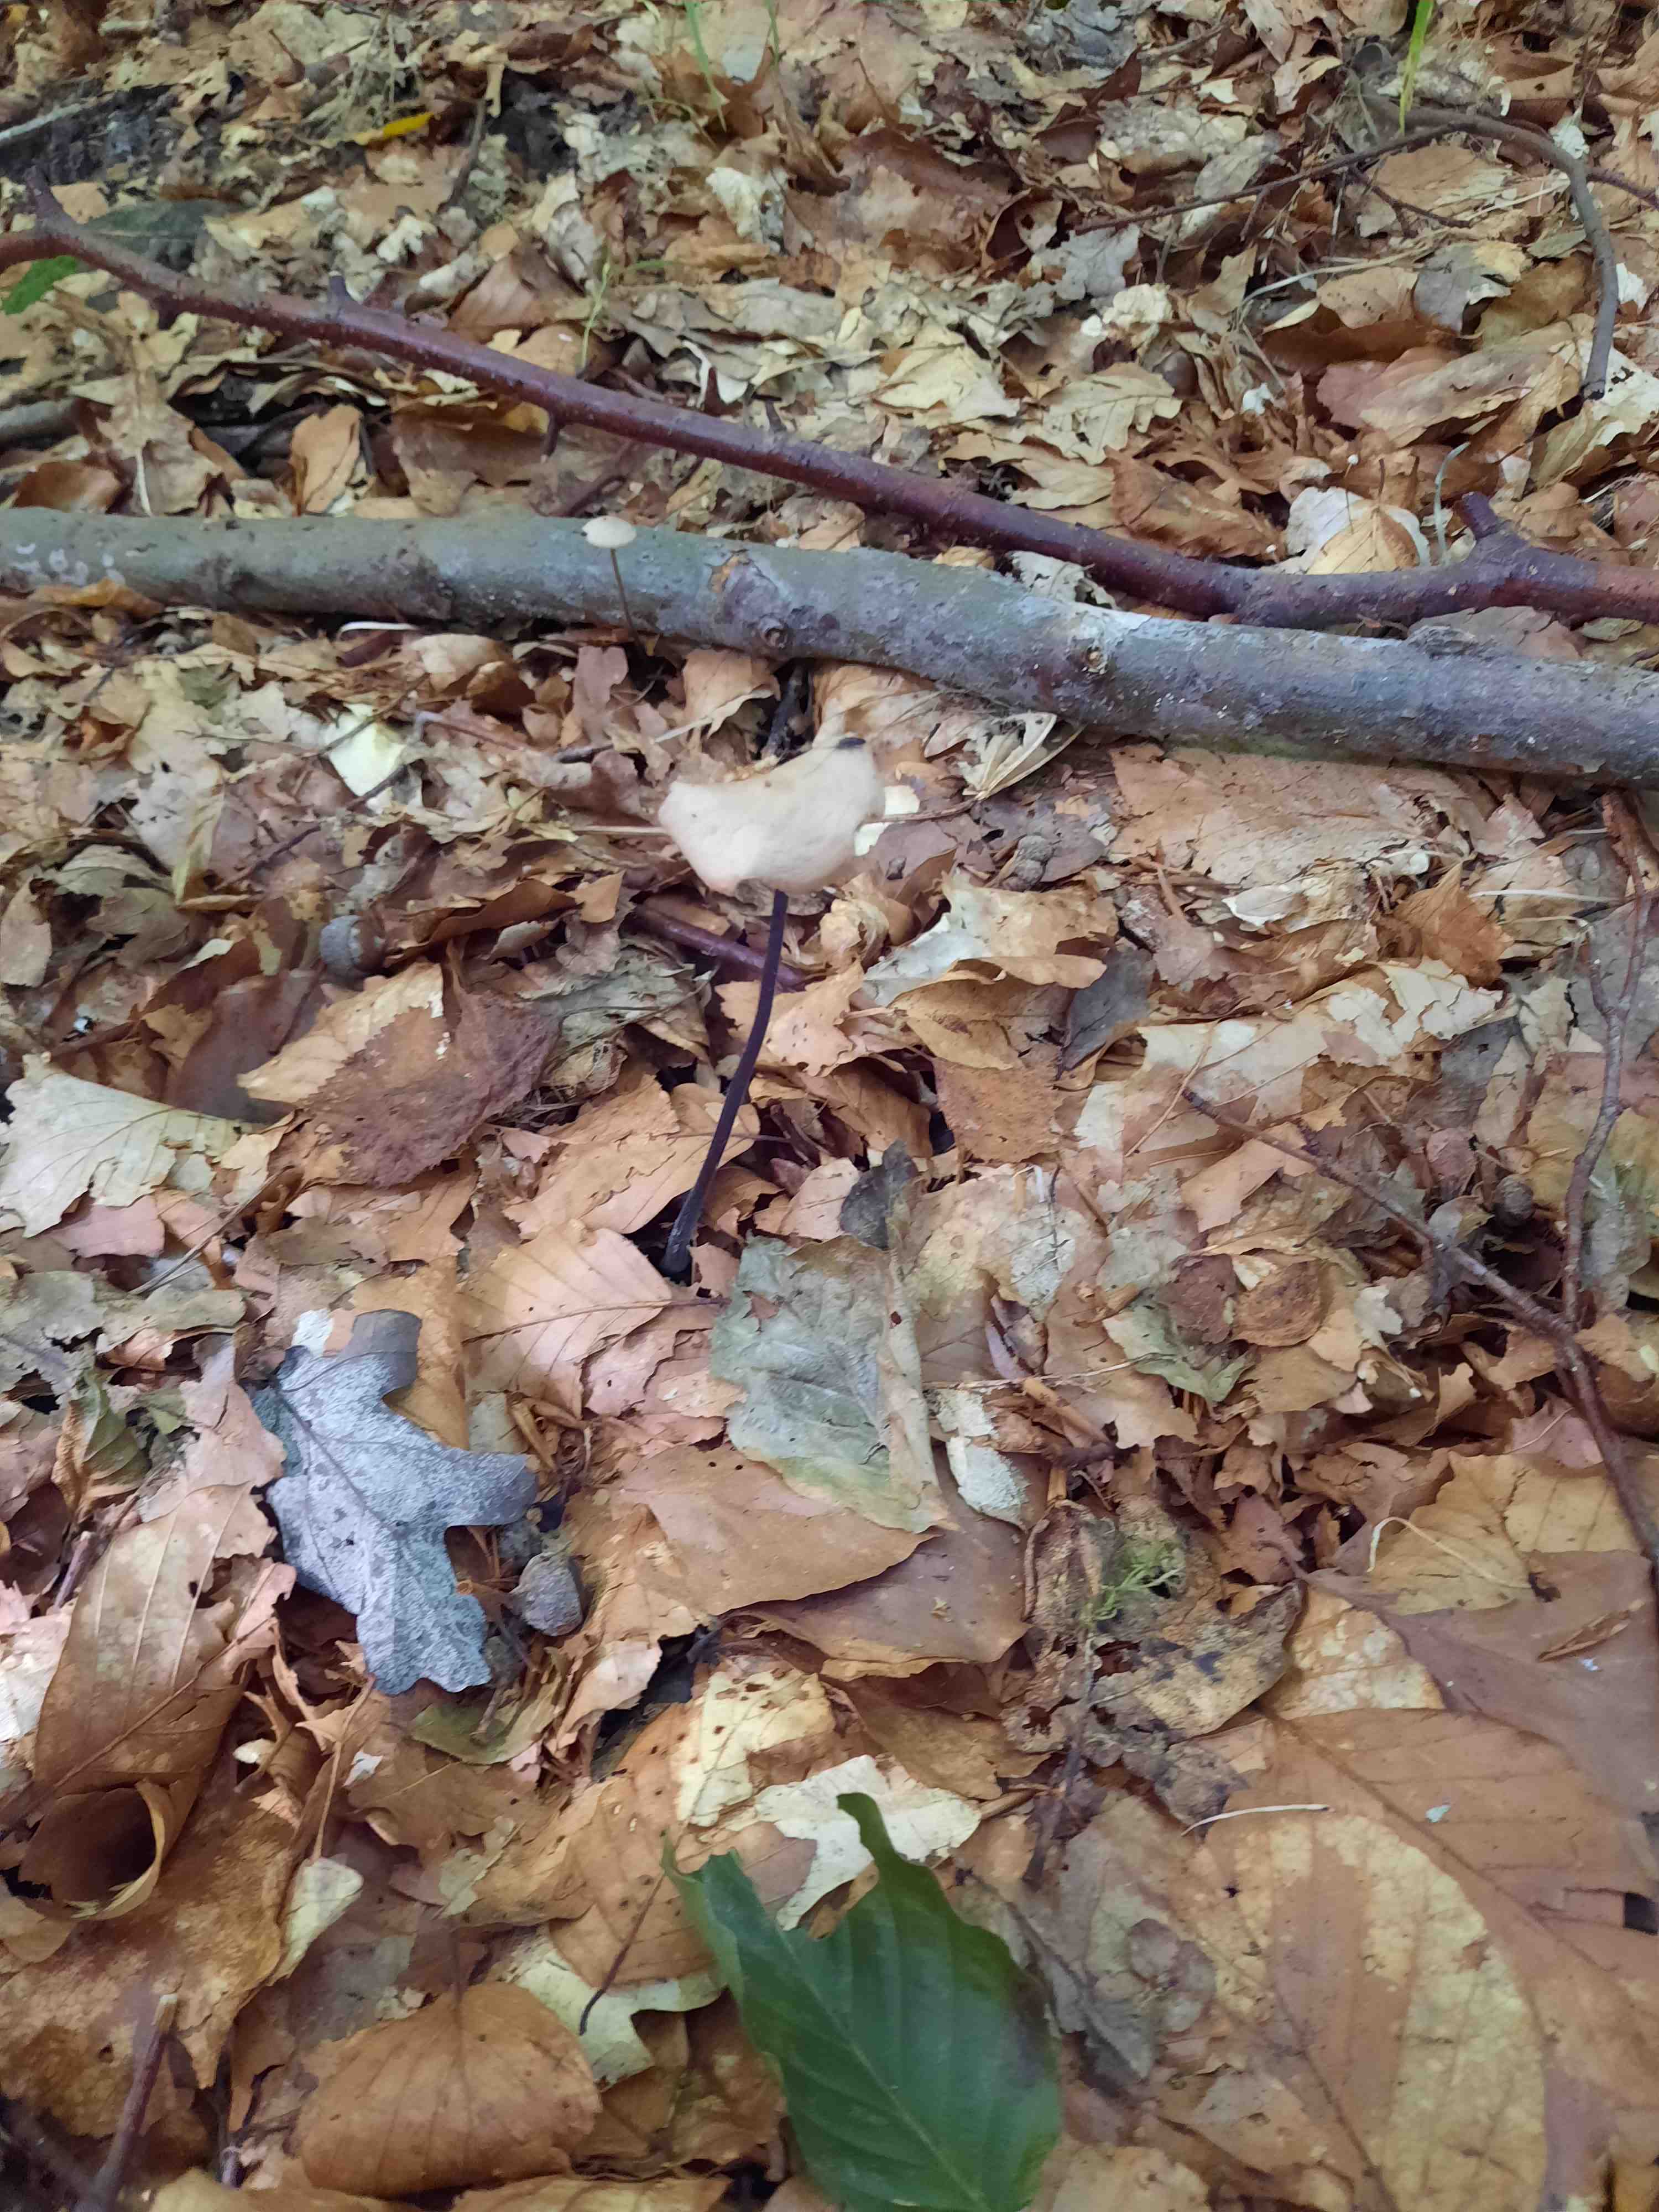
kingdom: Fungi
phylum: Basidiomycota
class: Agaricomycetes
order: Agaricales
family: Omphalotaceae
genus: Mycetinis
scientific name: Mycetinis alliaceus
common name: stor løghat
